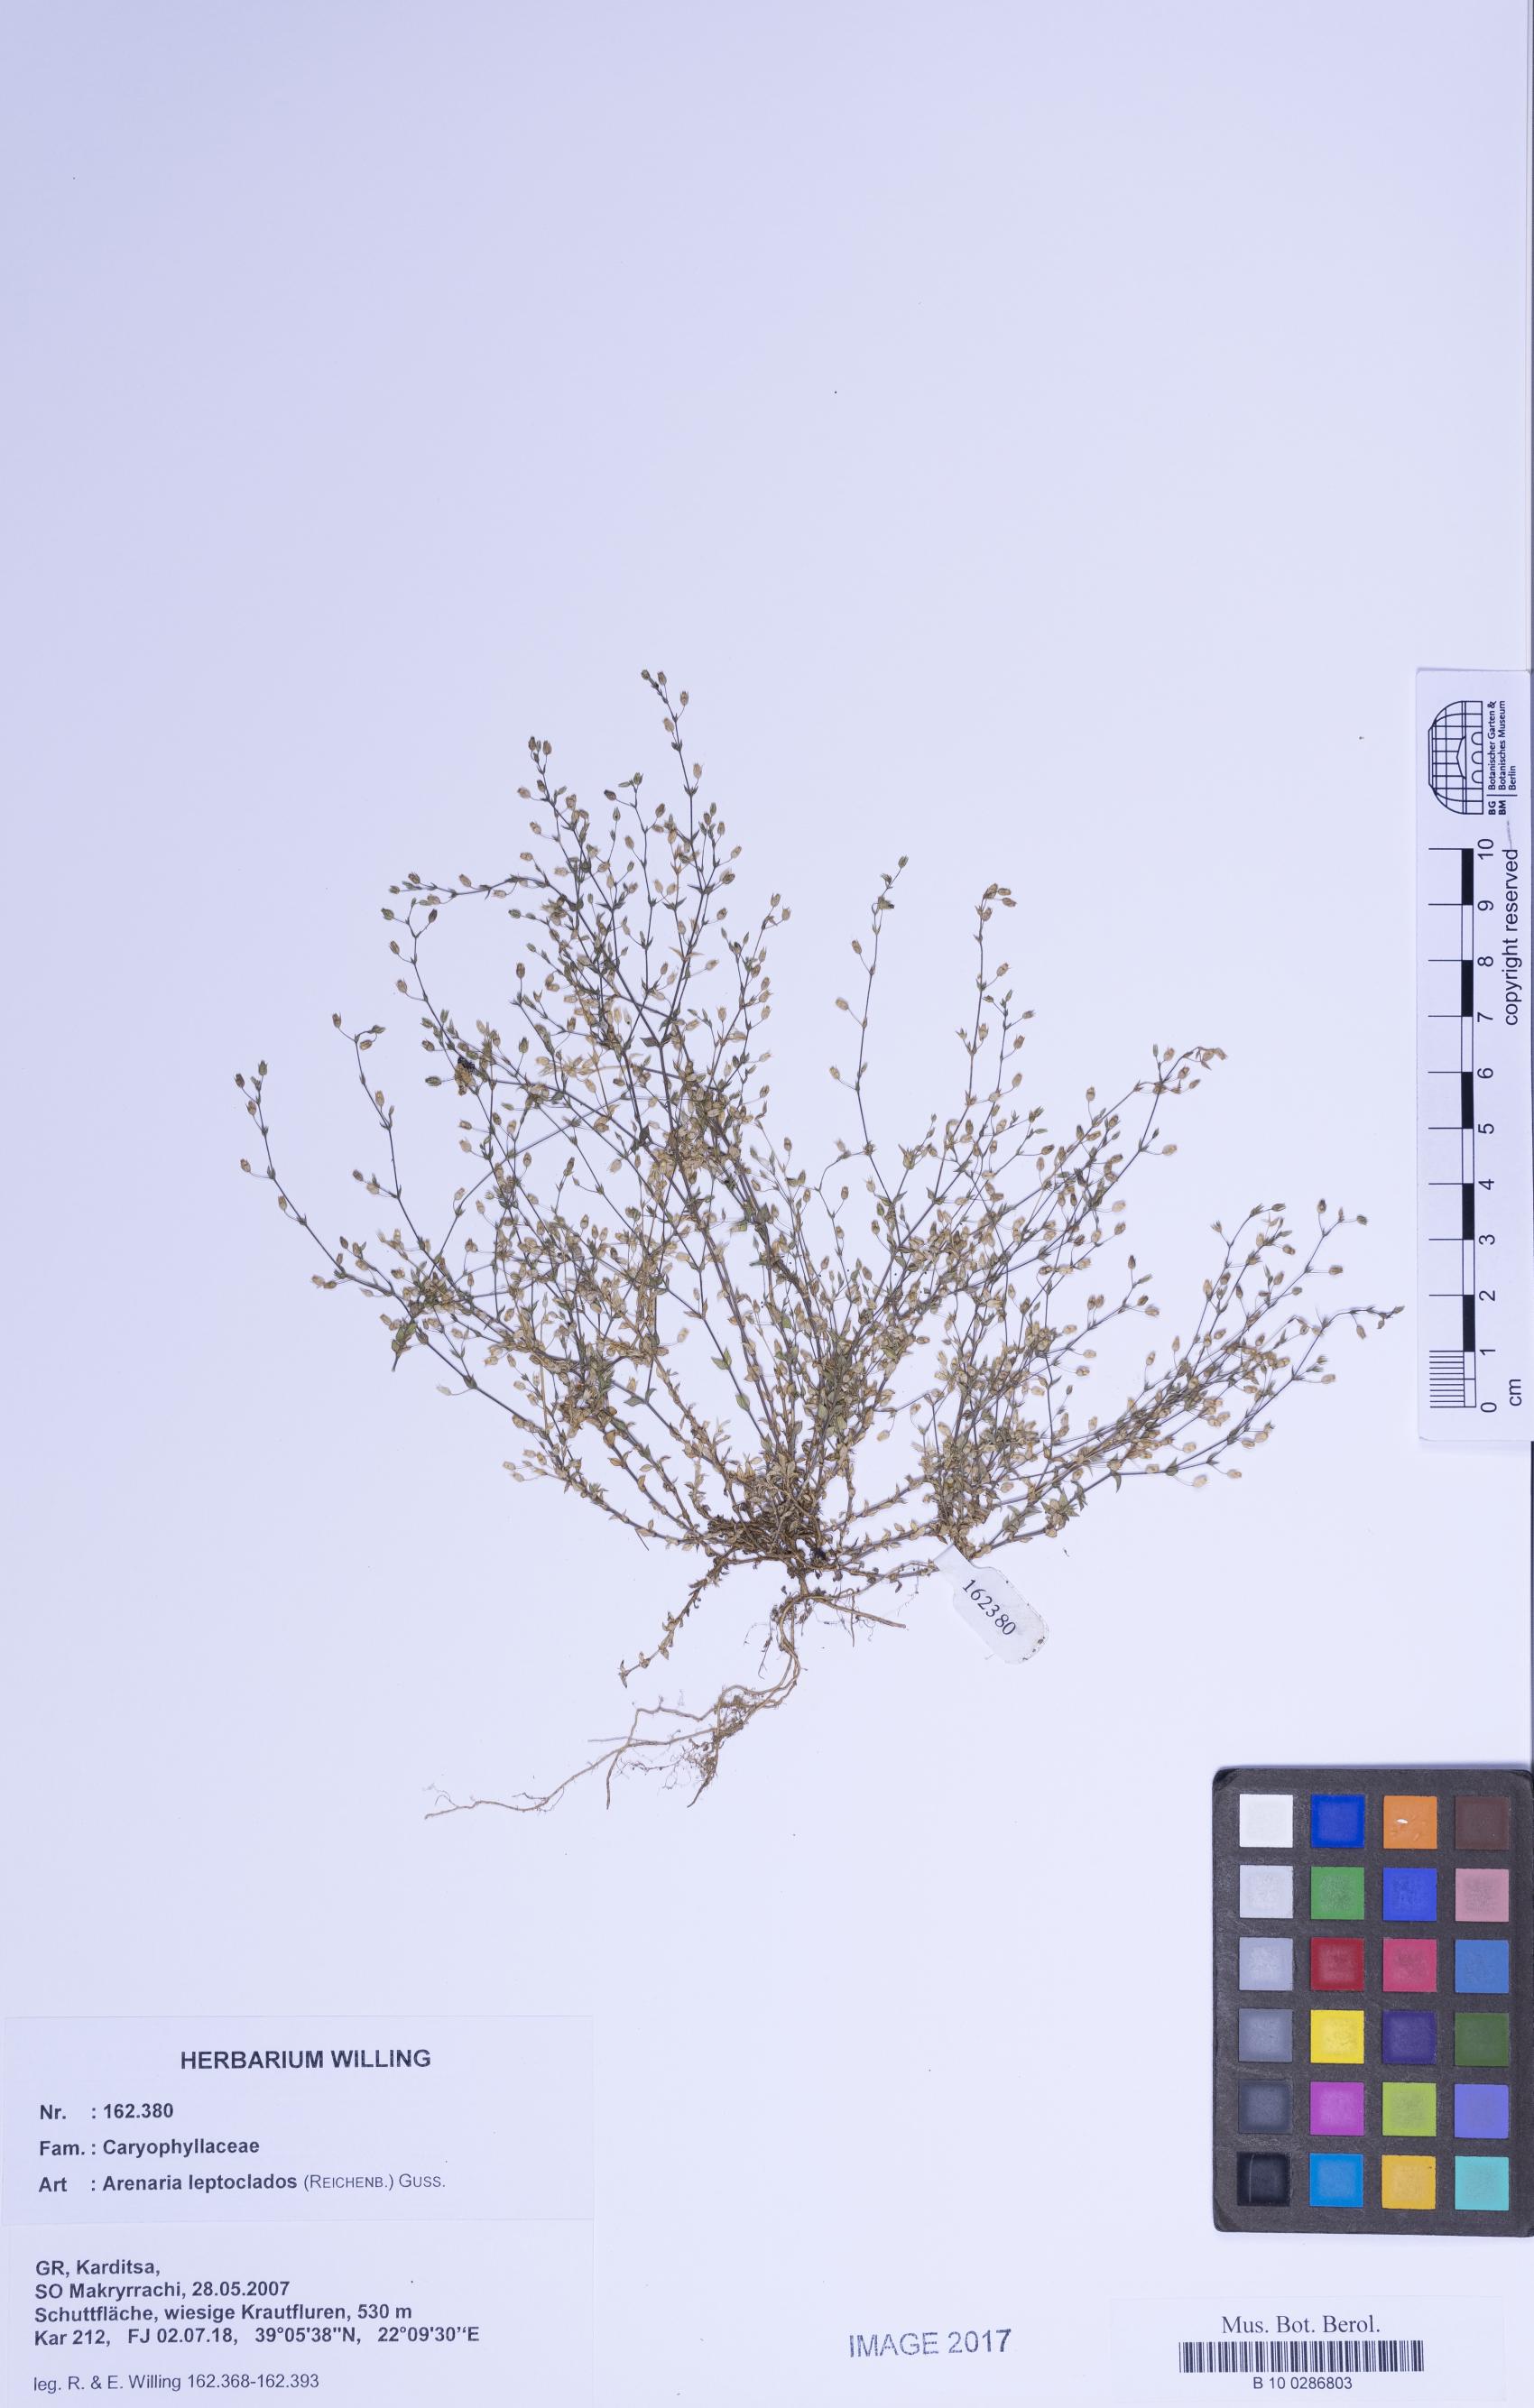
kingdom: Plantae
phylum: Tracheophyta
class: Magnoliopsida
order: Caryophyllales
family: Caryophyllaceae
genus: Arenaria
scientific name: Arenaria leptoclados
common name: Thyme-leaved sandwort
